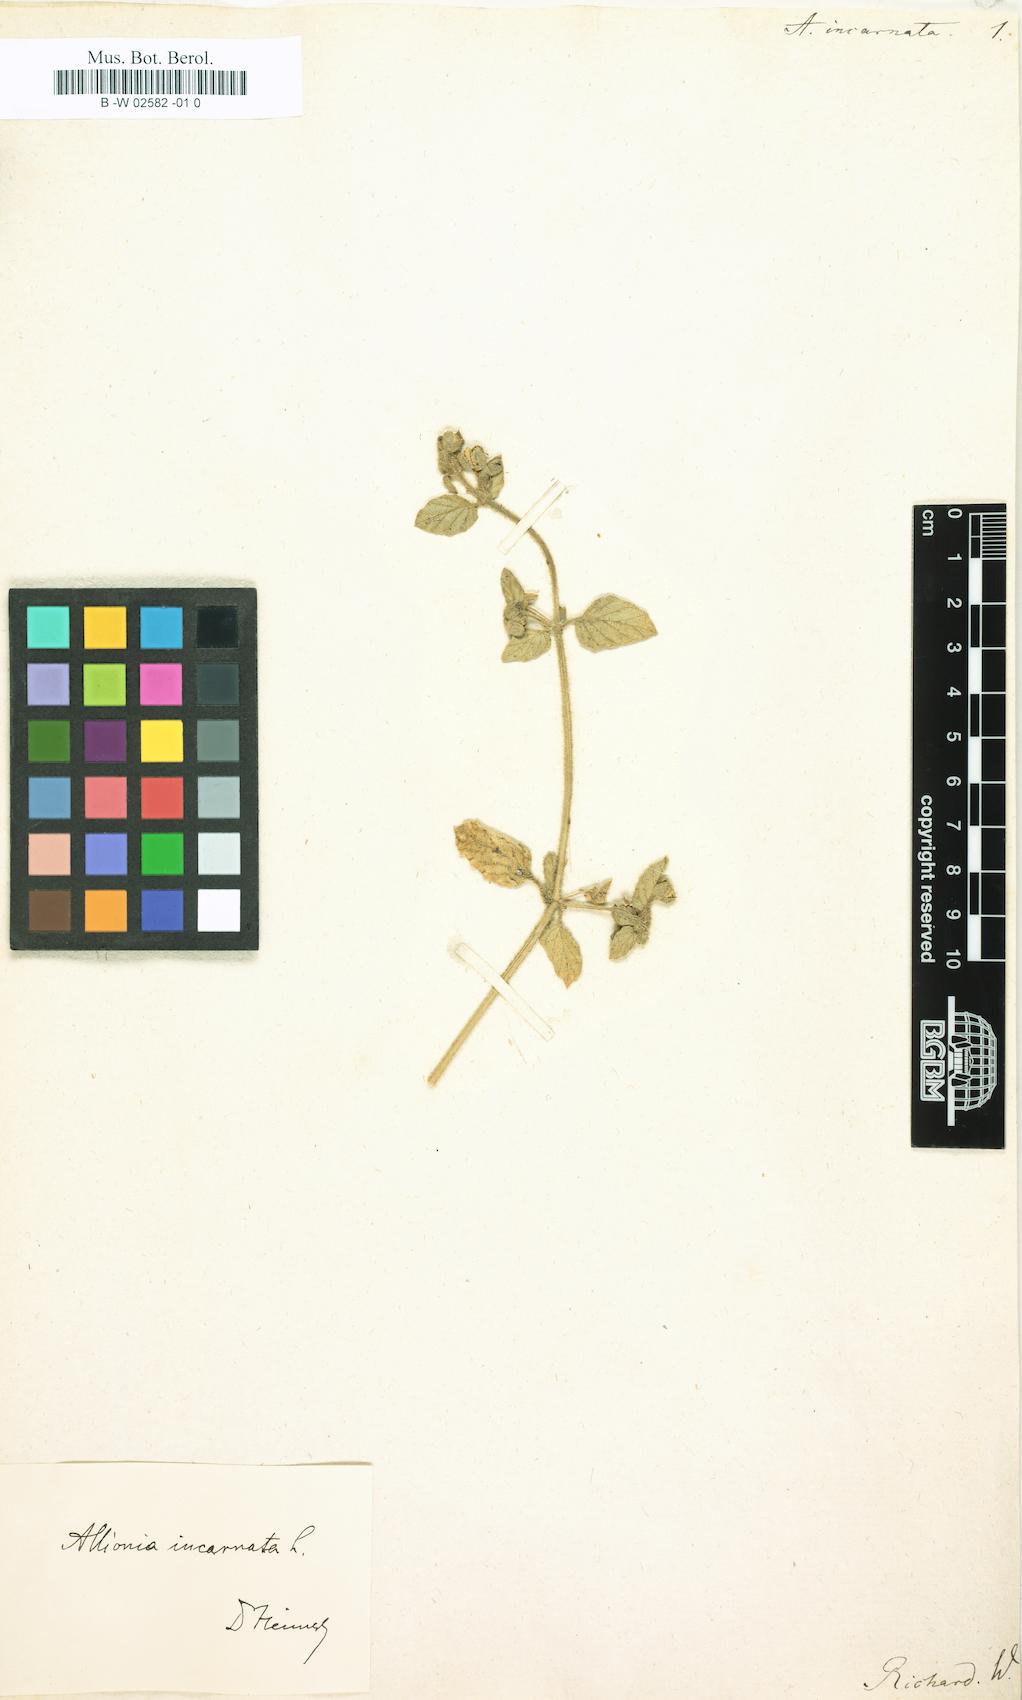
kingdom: Plantae
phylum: Tracheophyta
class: Magnoliopsida
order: Caryophyllales
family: Nyctaginaceae
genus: Allionia
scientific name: Allionia incarnata
